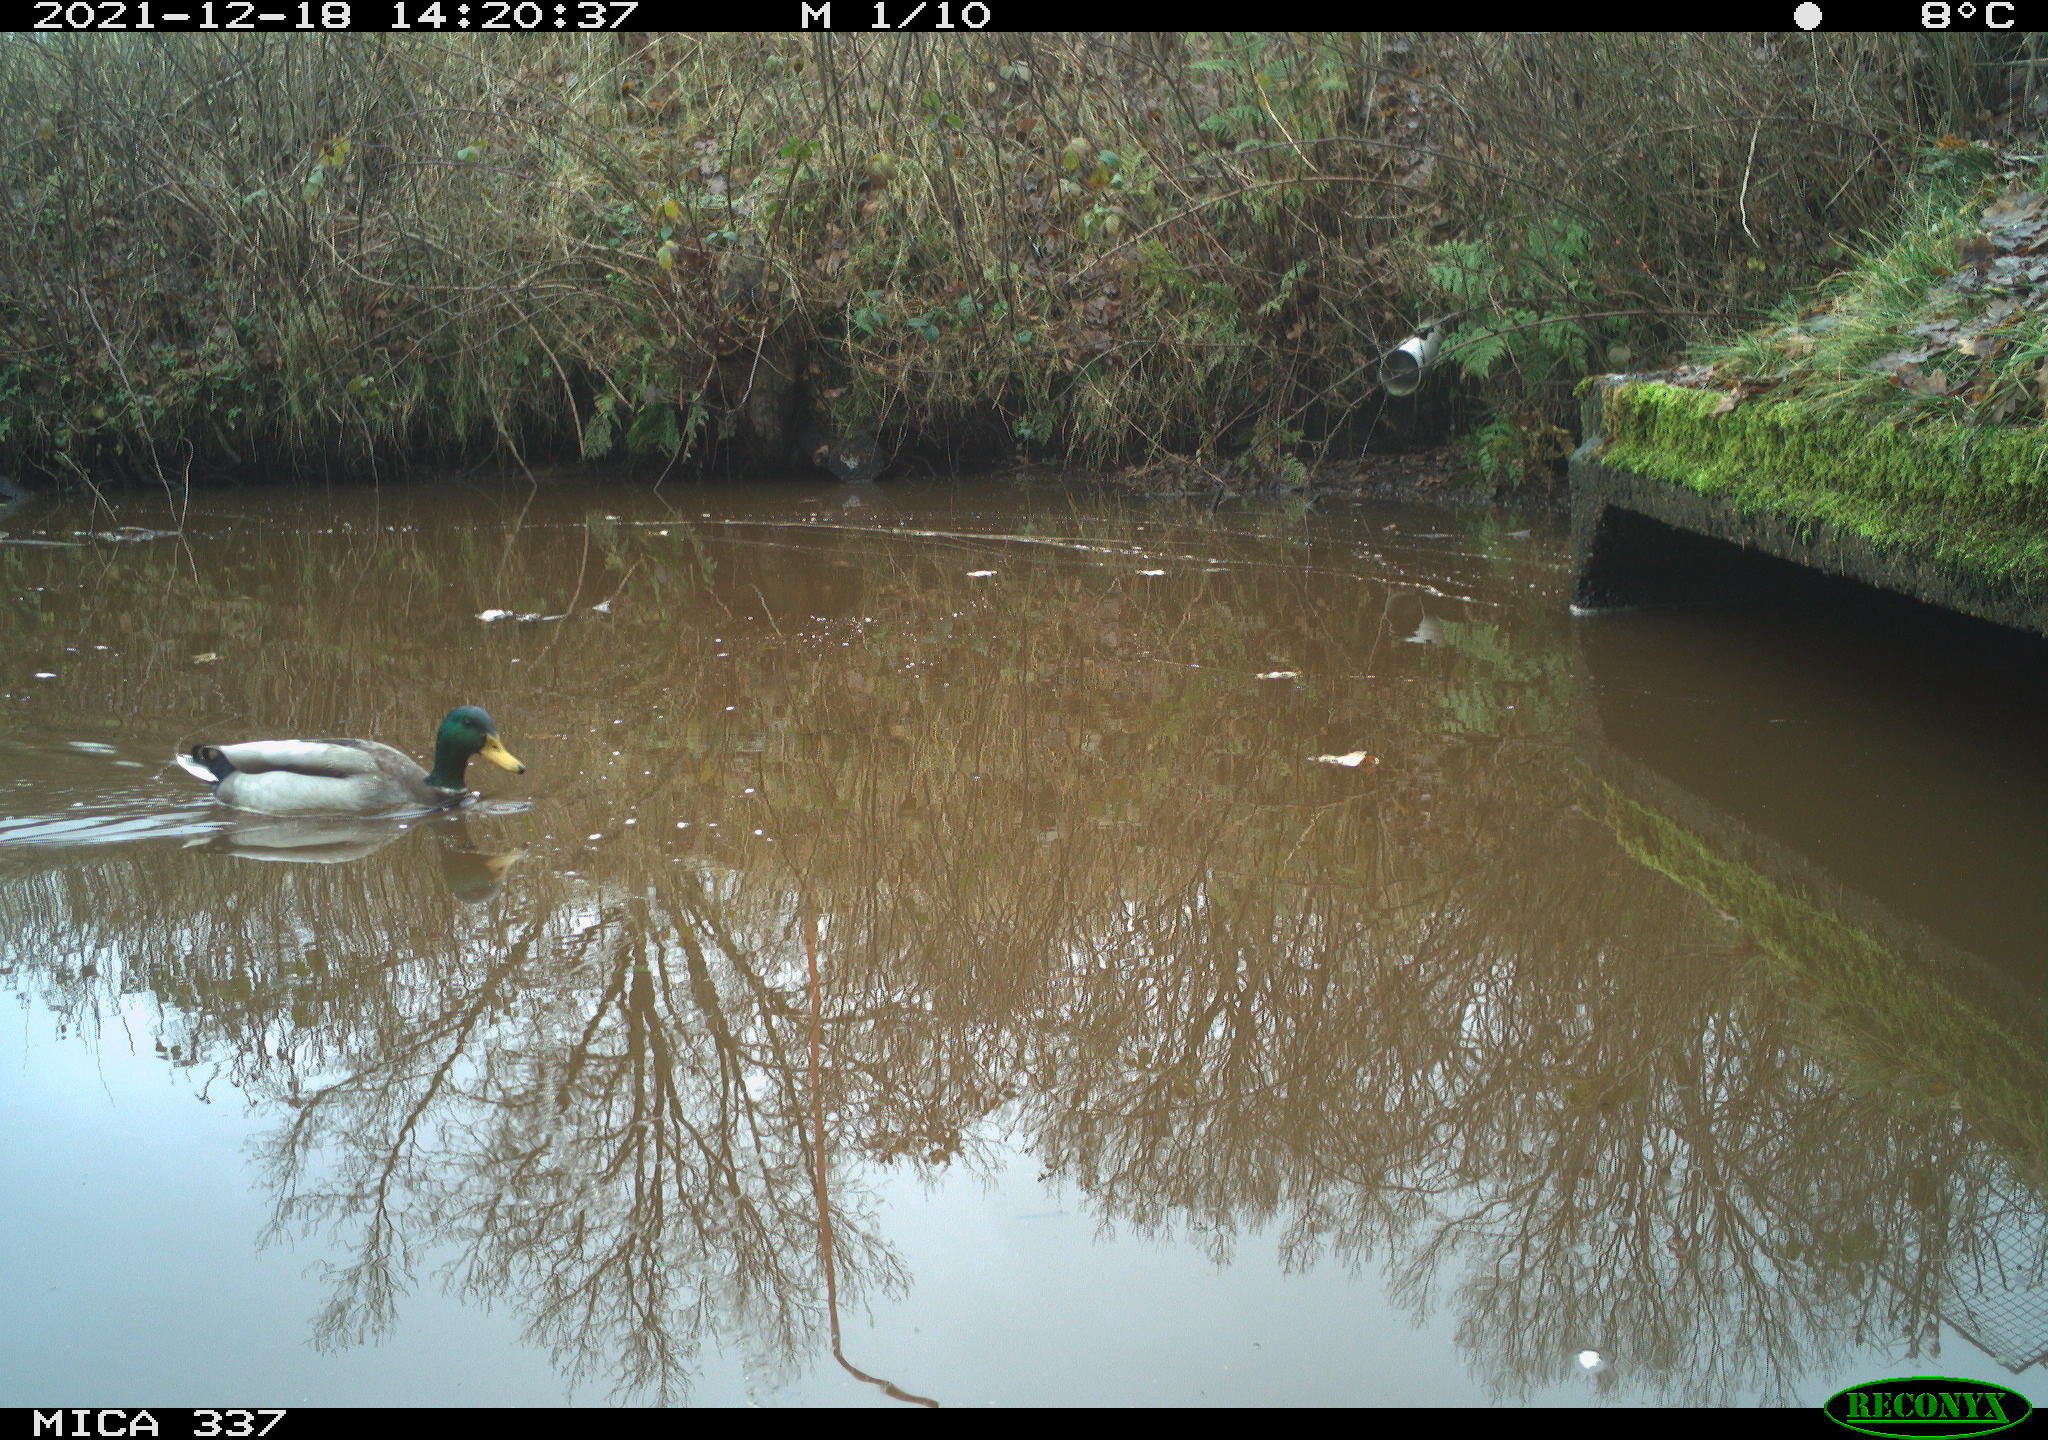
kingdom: Animalia
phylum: Chordata
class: Aves
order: Anseriformes
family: Anatidae
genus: Anas
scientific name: Anas platyrhynchos
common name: Mallard
